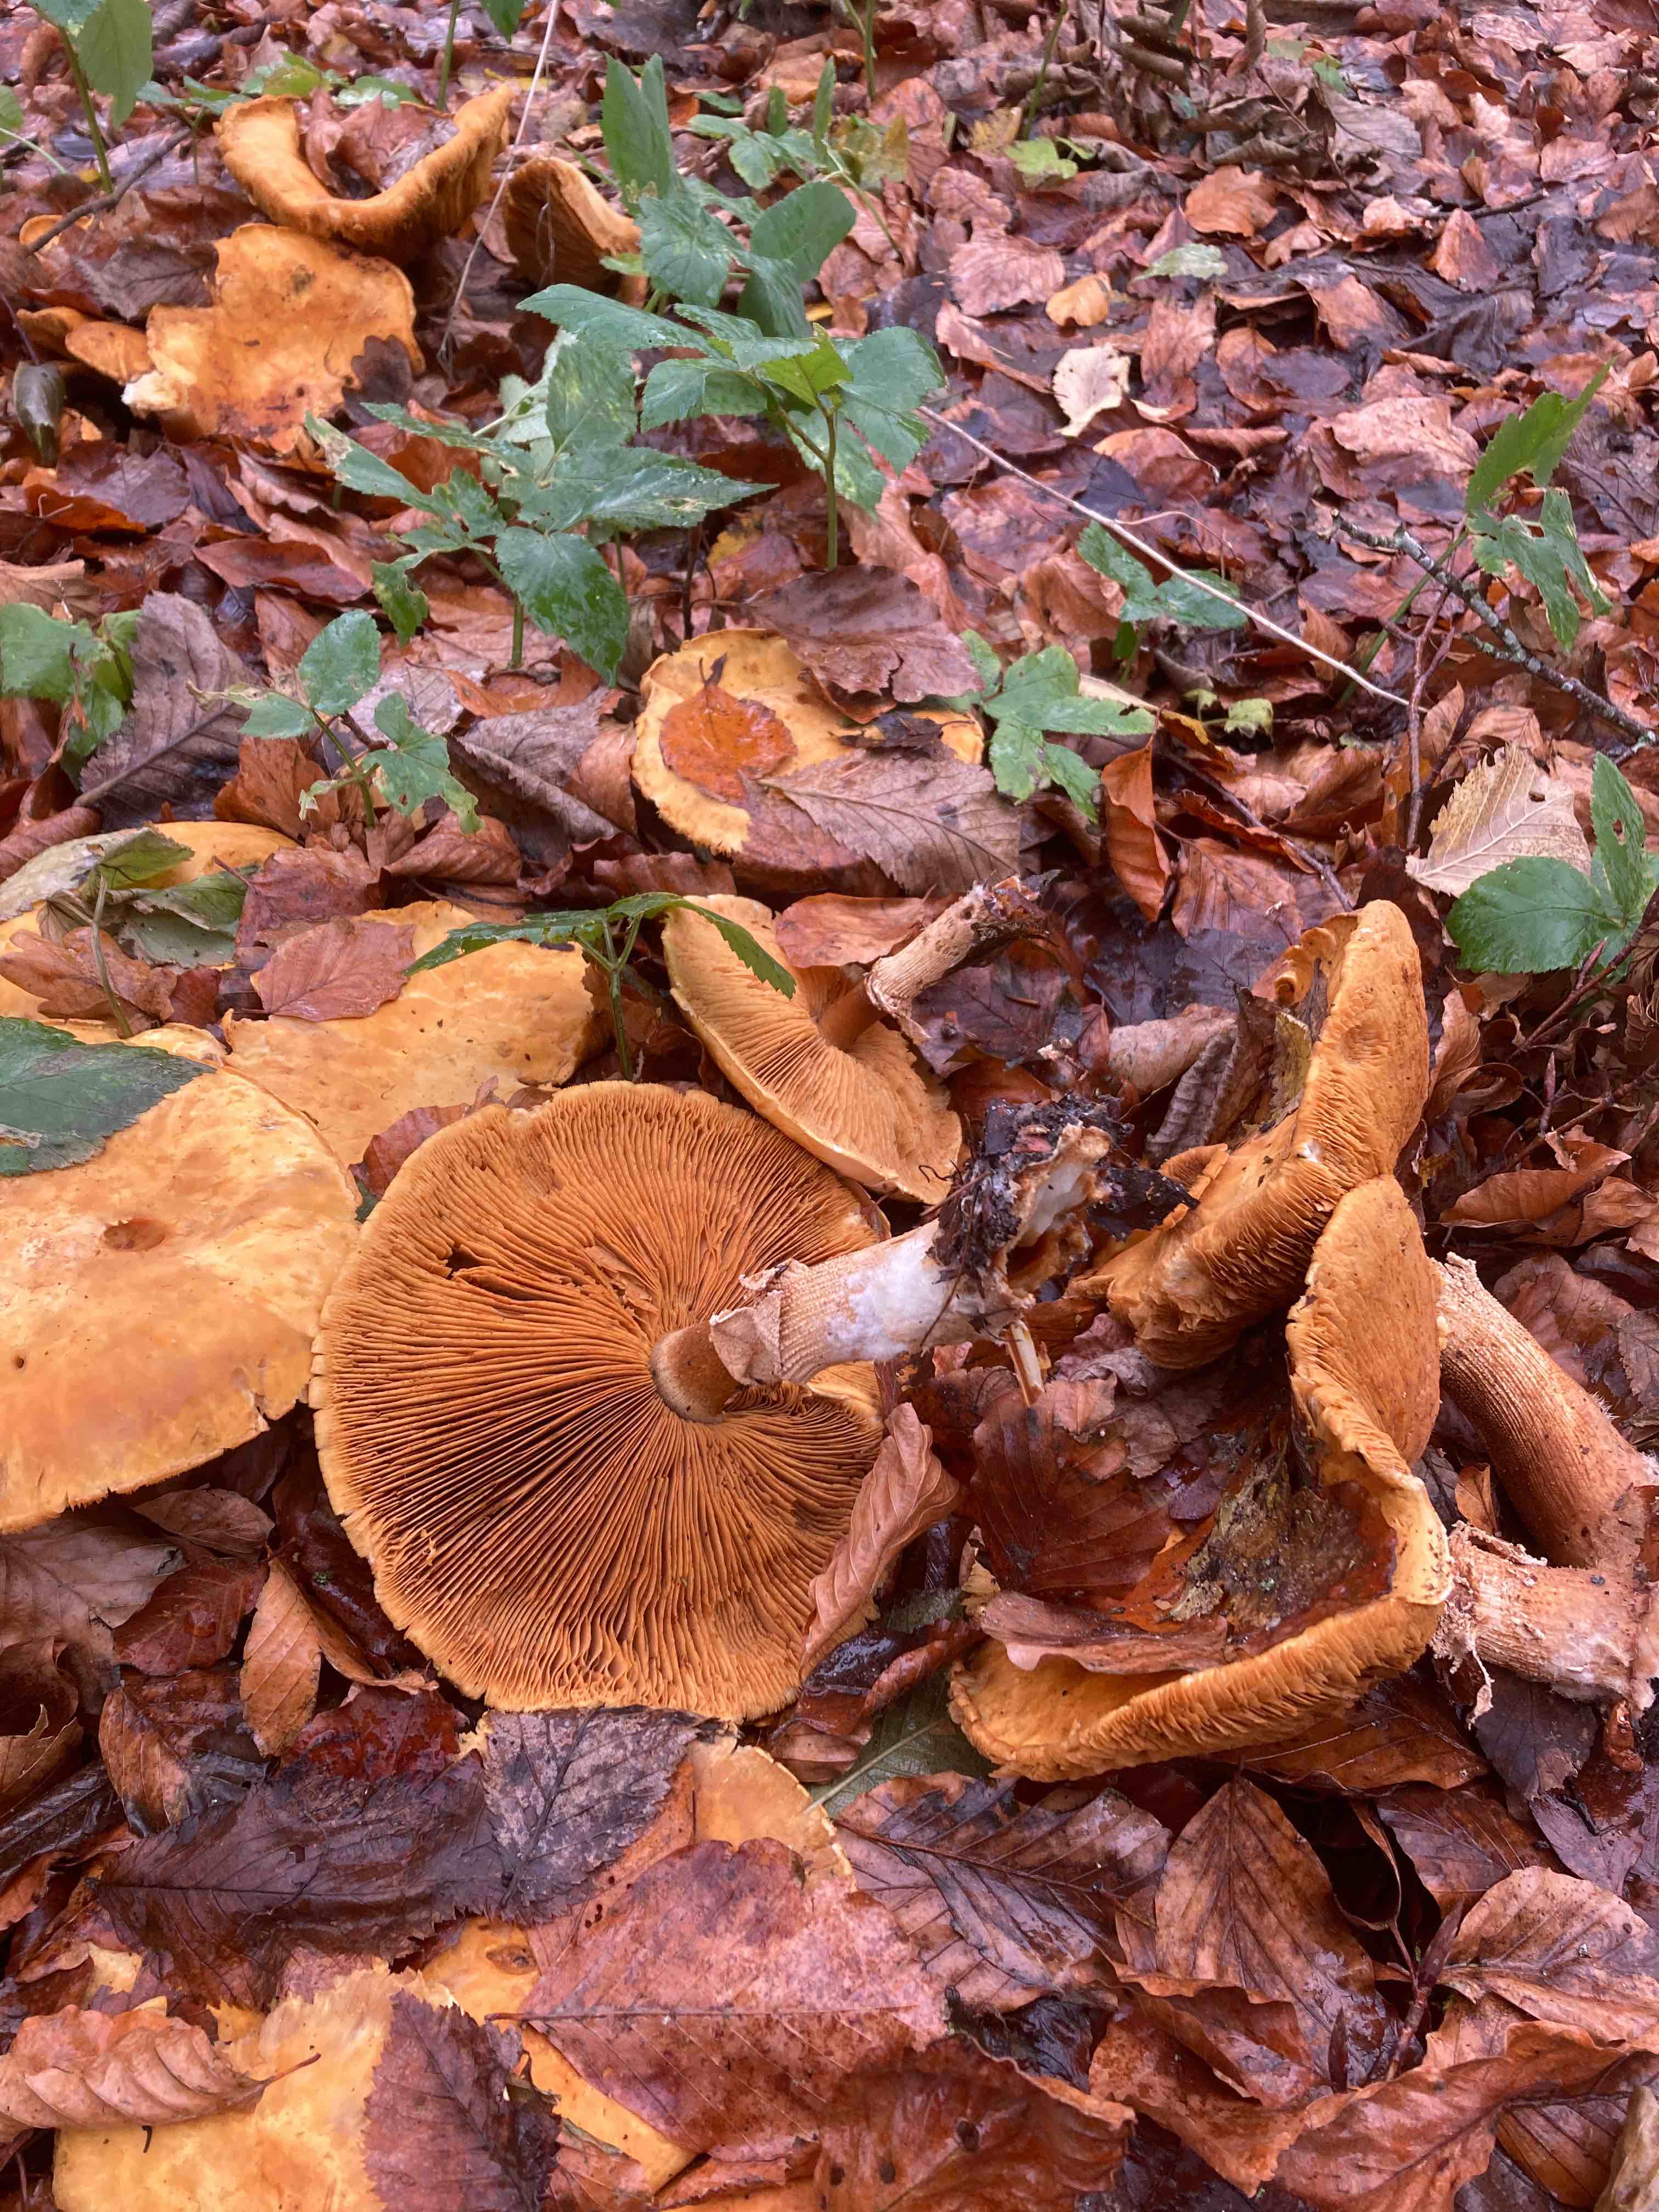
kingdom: Fungi
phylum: Basidiomycota
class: Agaricomycetes
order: Agaricales
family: Tricholomataceae
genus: Phaeolepiota
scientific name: Phaeolepiota aurea
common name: gyldenhat
